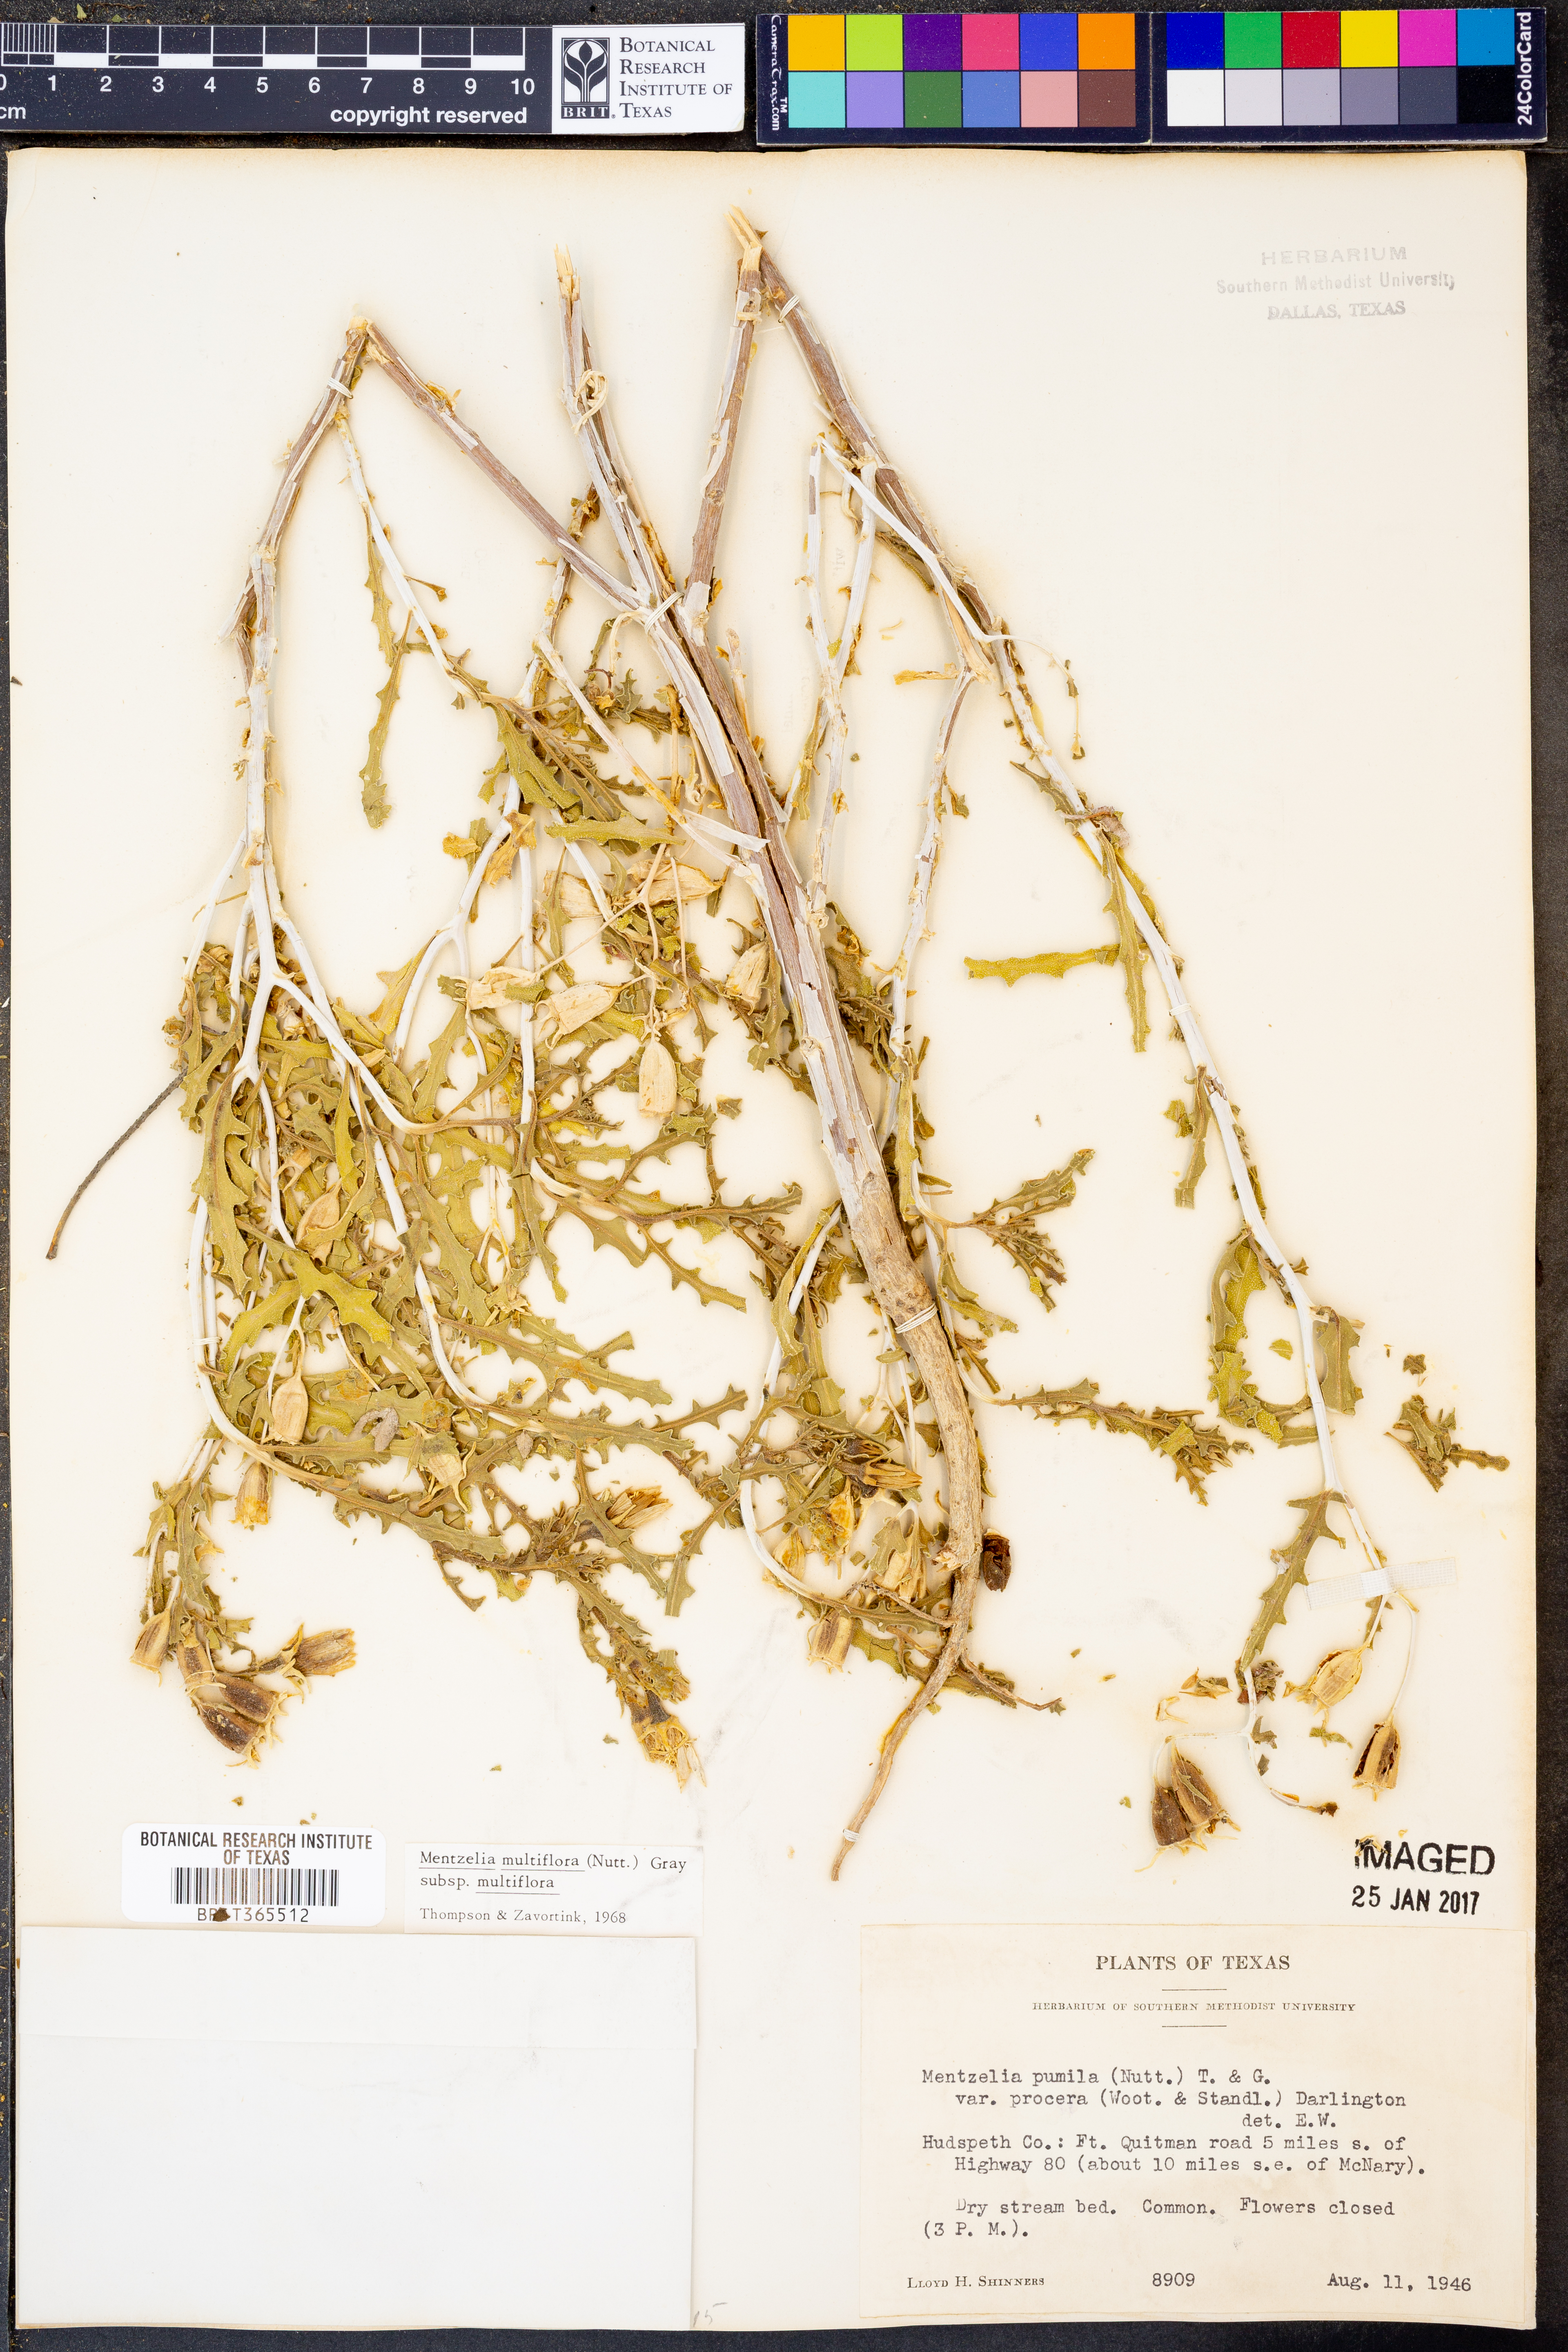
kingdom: Plantae
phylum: Tracheophyta
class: Magnoliopsida
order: Cornales
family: Loasaceae
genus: Mentzelia
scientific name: Mentzelia multiflora
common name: Adonis blazingstar
